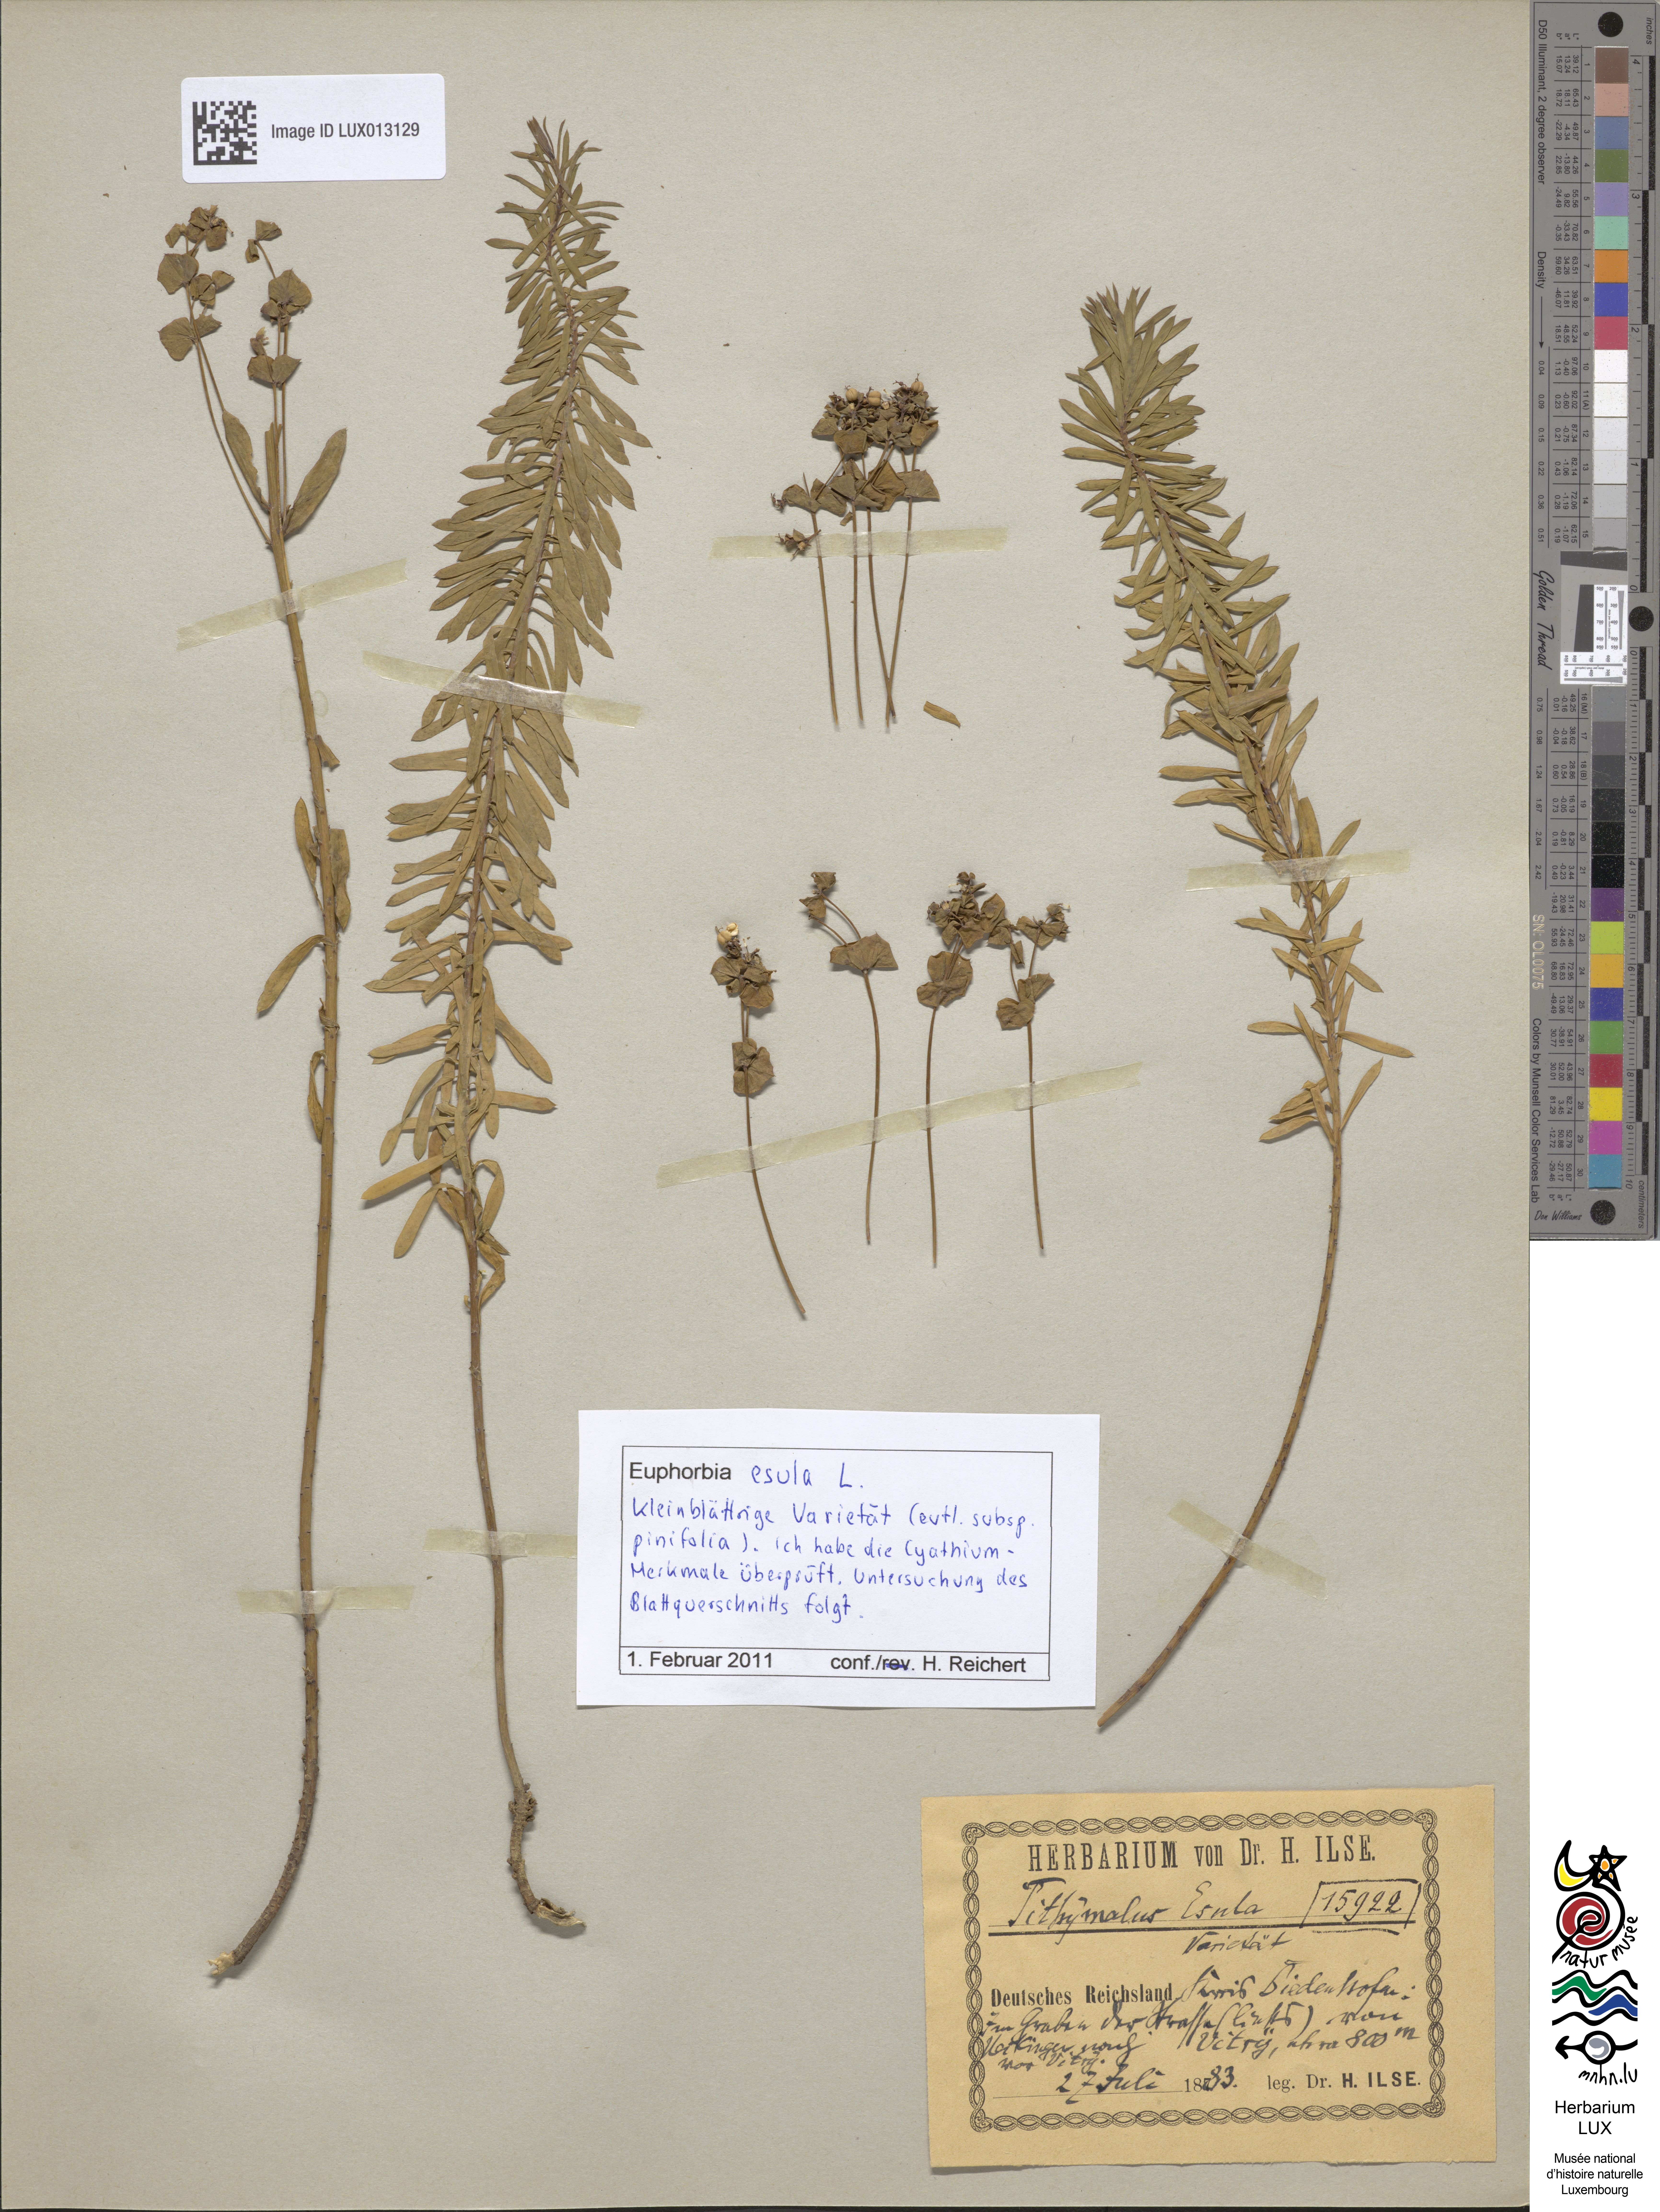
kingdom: Plantae
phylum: Tracheophyta
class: Magnoliopsida
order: Malpighiales
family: Euphorbiaceae
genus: Euphorbia
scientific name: Euphorbia esula
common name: Leafy spurge
